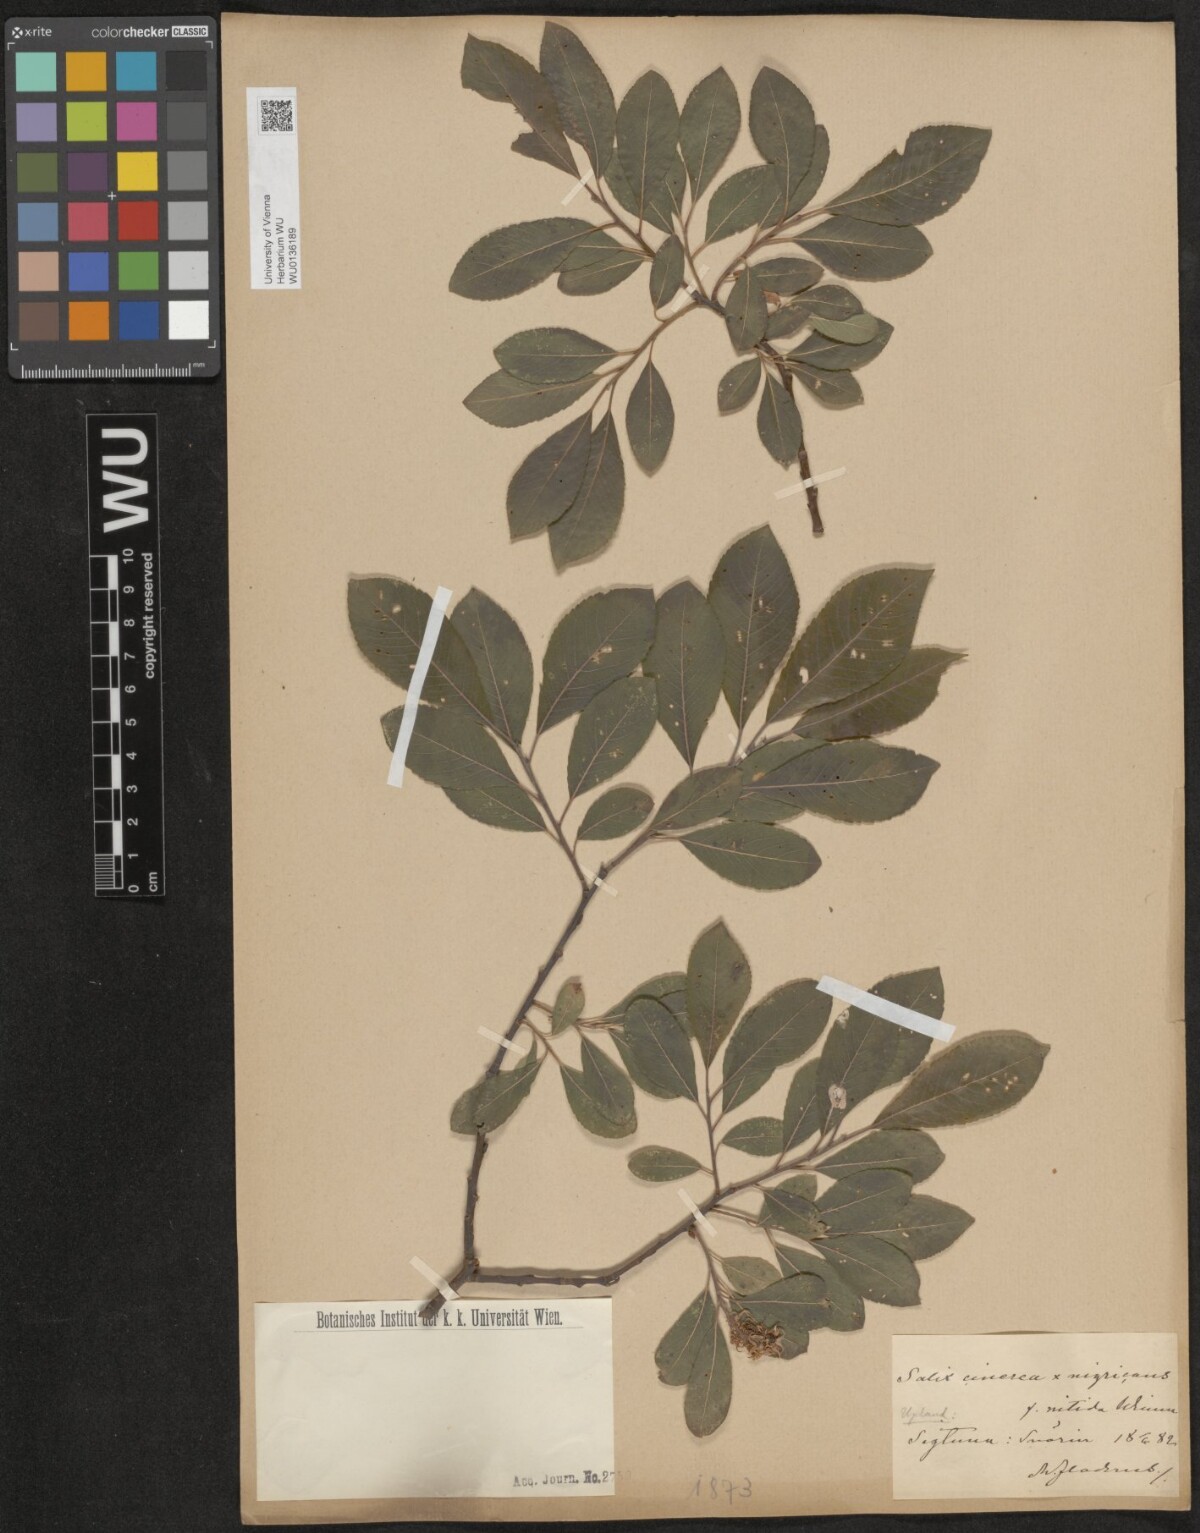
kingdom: Plantae
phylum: Tracheophyta
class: Magnoliopsida
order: Malpighiales
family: Salicaceae
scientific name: Salicaceae
